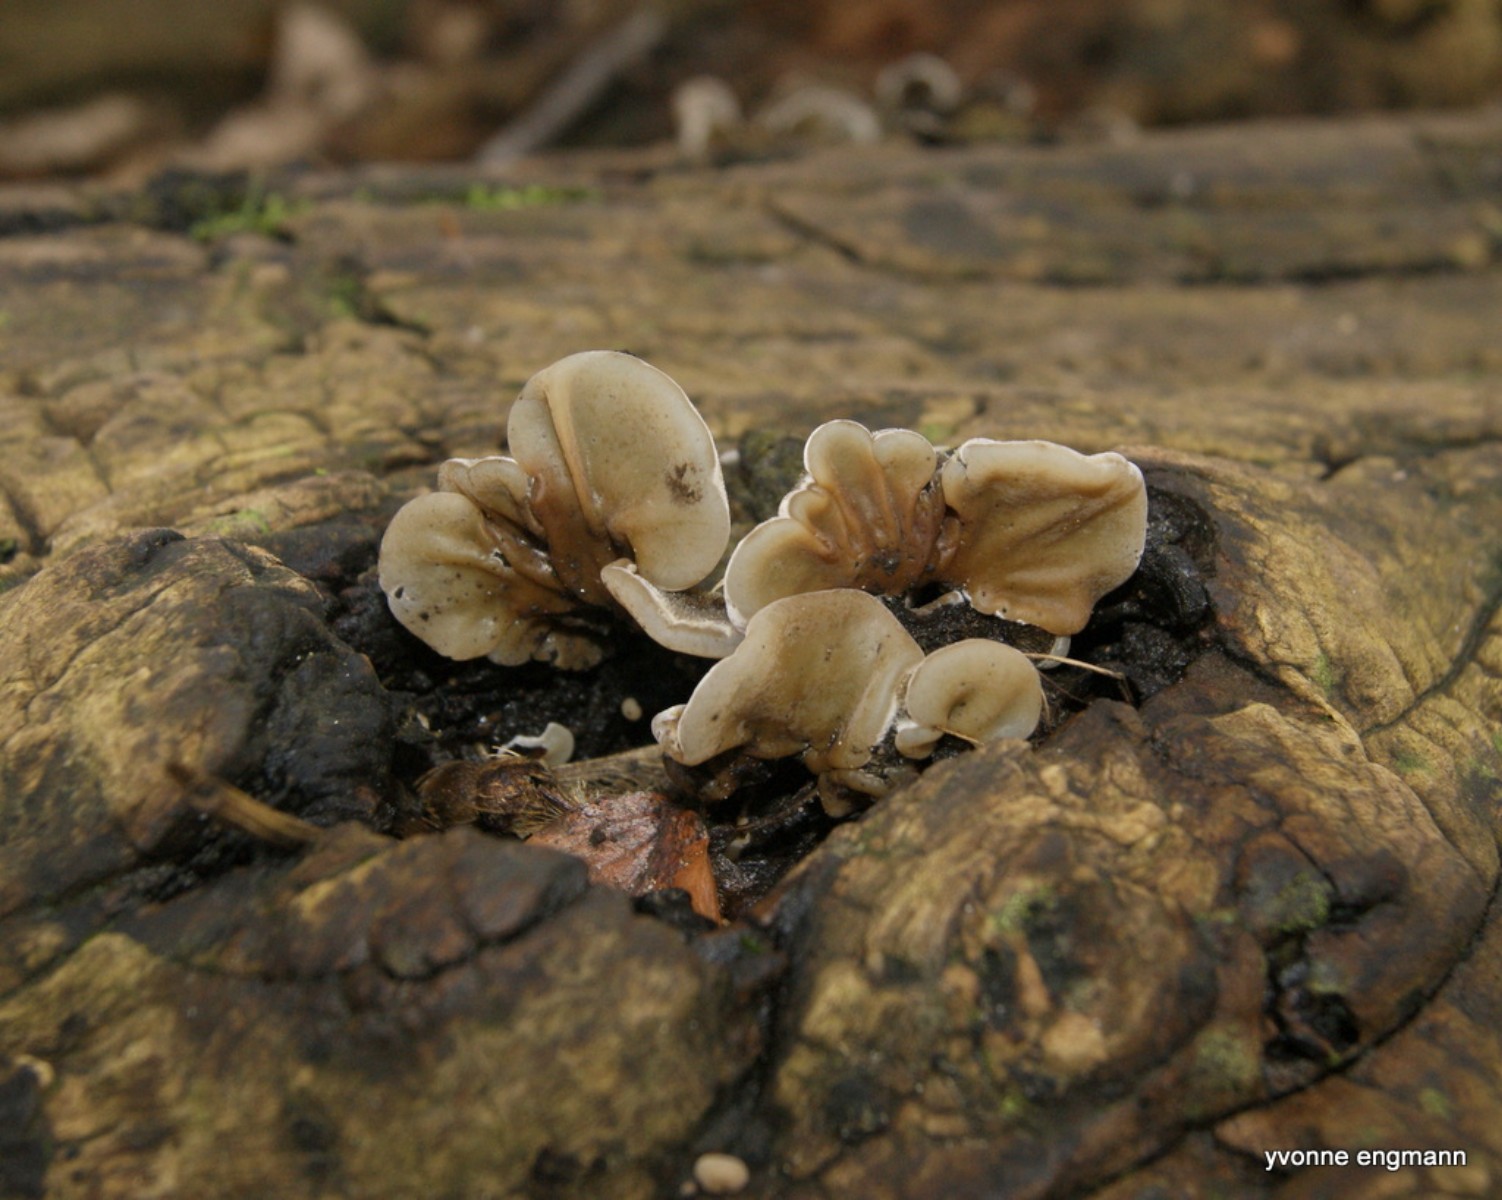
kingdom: Fungi
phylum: Basidiomycota
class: Agaricomycetes
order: Auriculariales
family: Auriculariaceae
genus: Auricularia
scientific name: Auricularia mesenterica
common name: håret judasøre
